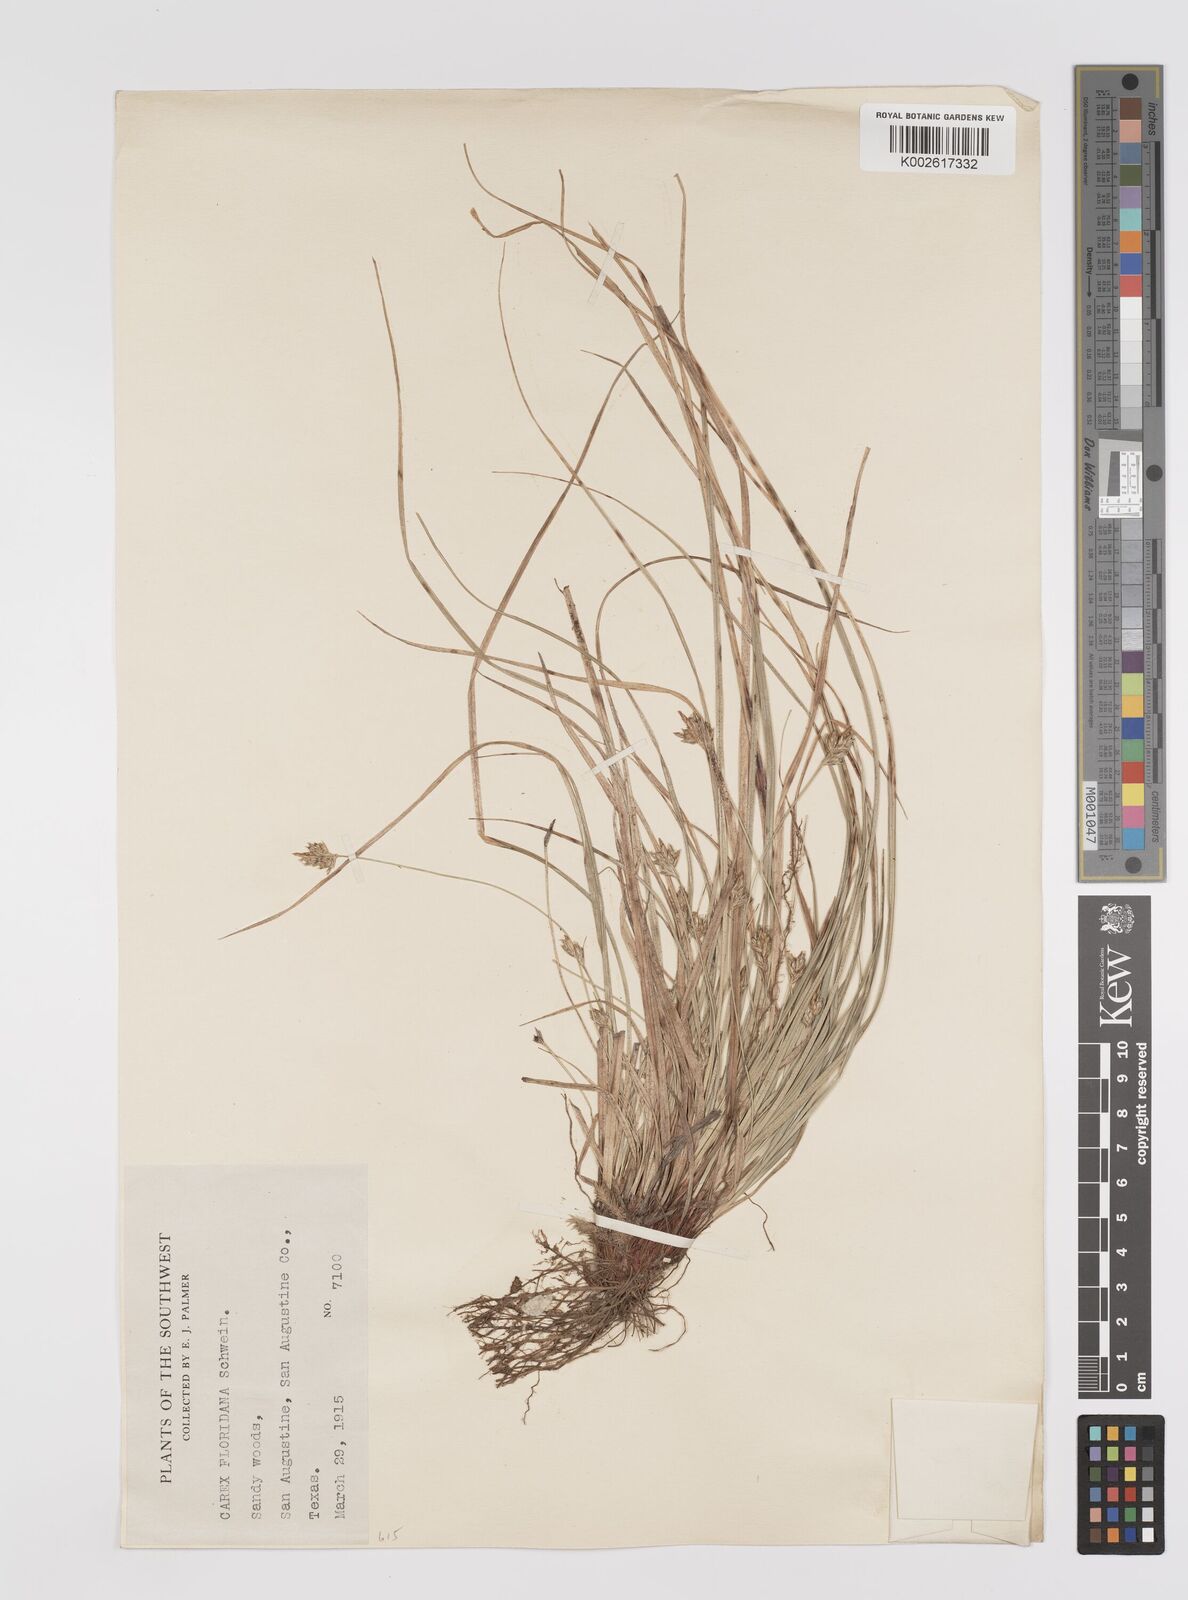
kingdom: Plantae
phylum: Tracheophyta
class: Liliopsida
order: Poales
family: Cyperaceae
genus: Carex
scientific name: Carex floridana
